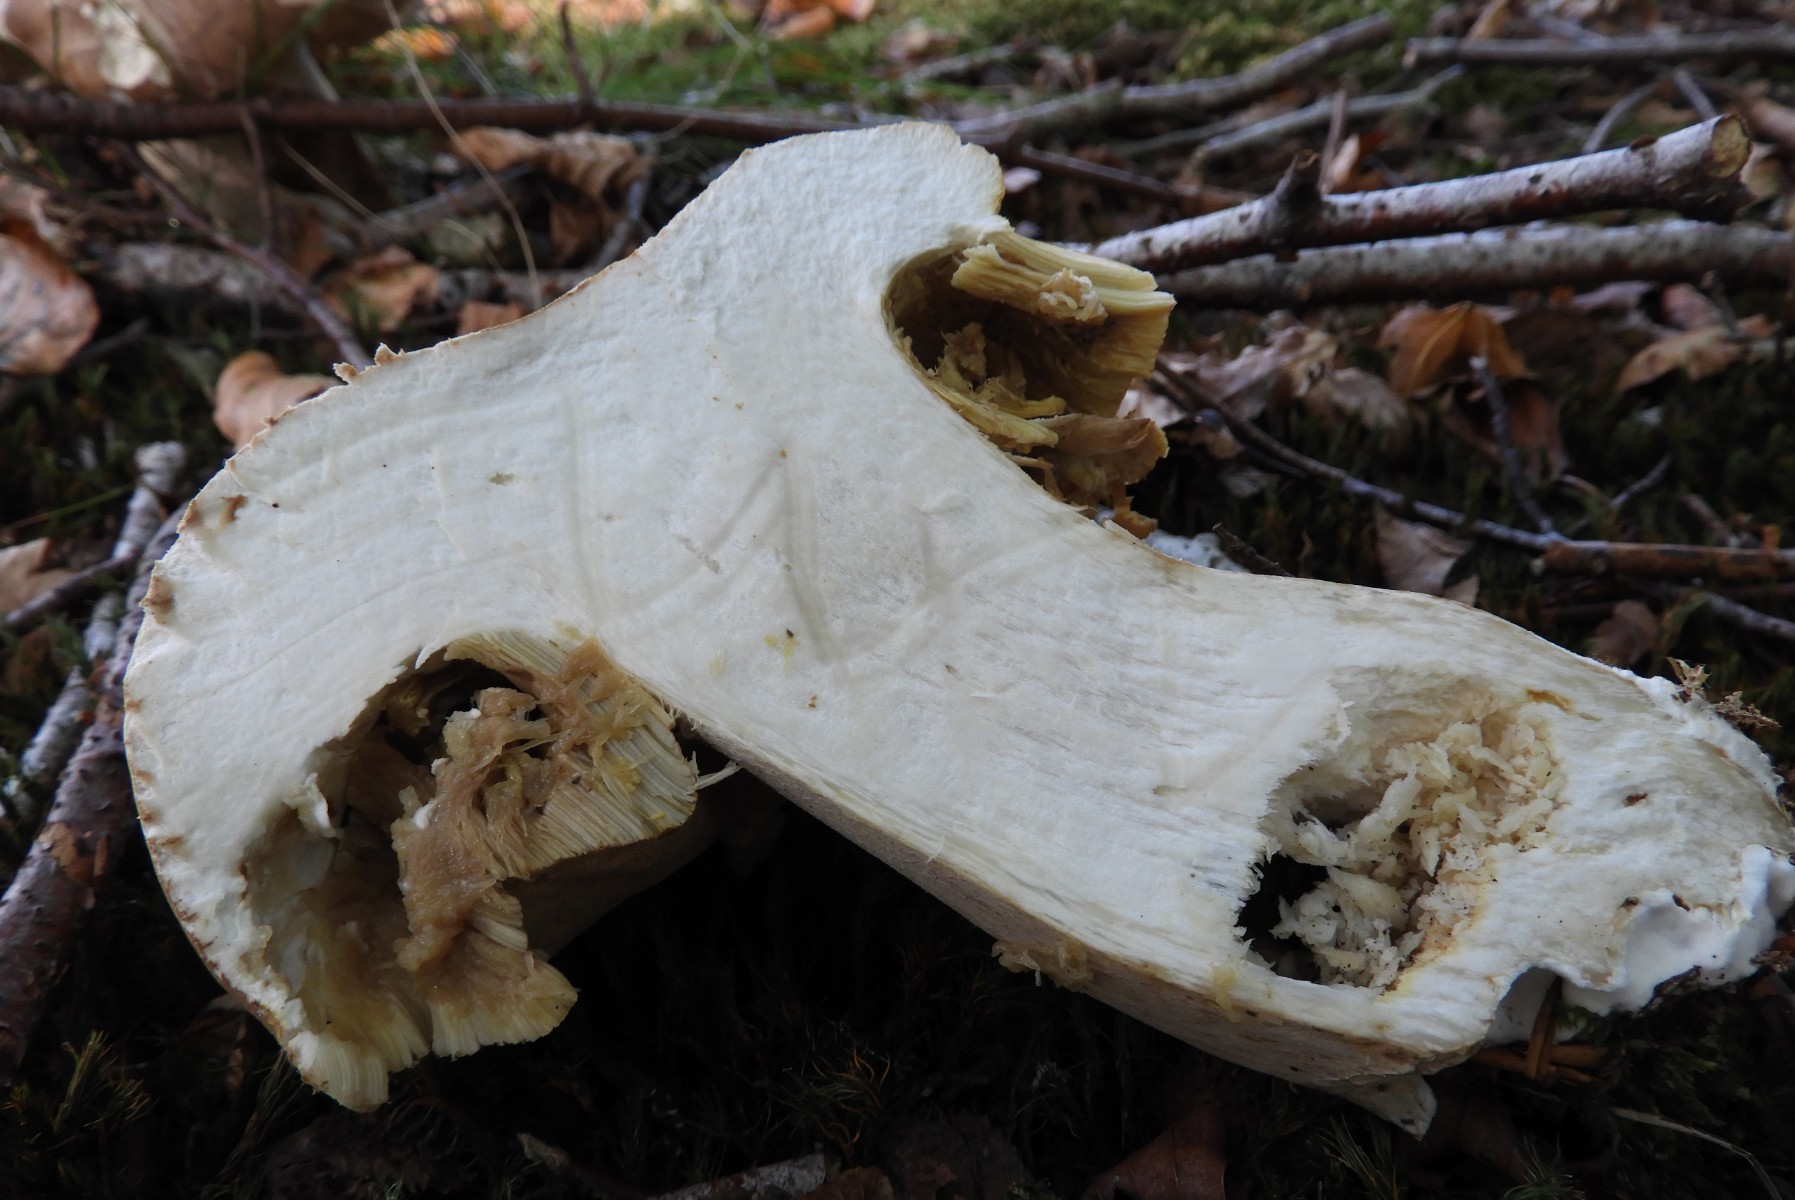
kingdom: Fungi
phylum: Basidiomycota
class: Agaricomycetes
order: Boletales
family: Boletaceae
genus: Boletus
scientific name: Boletus reticulatus
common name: sommer-rørhat
